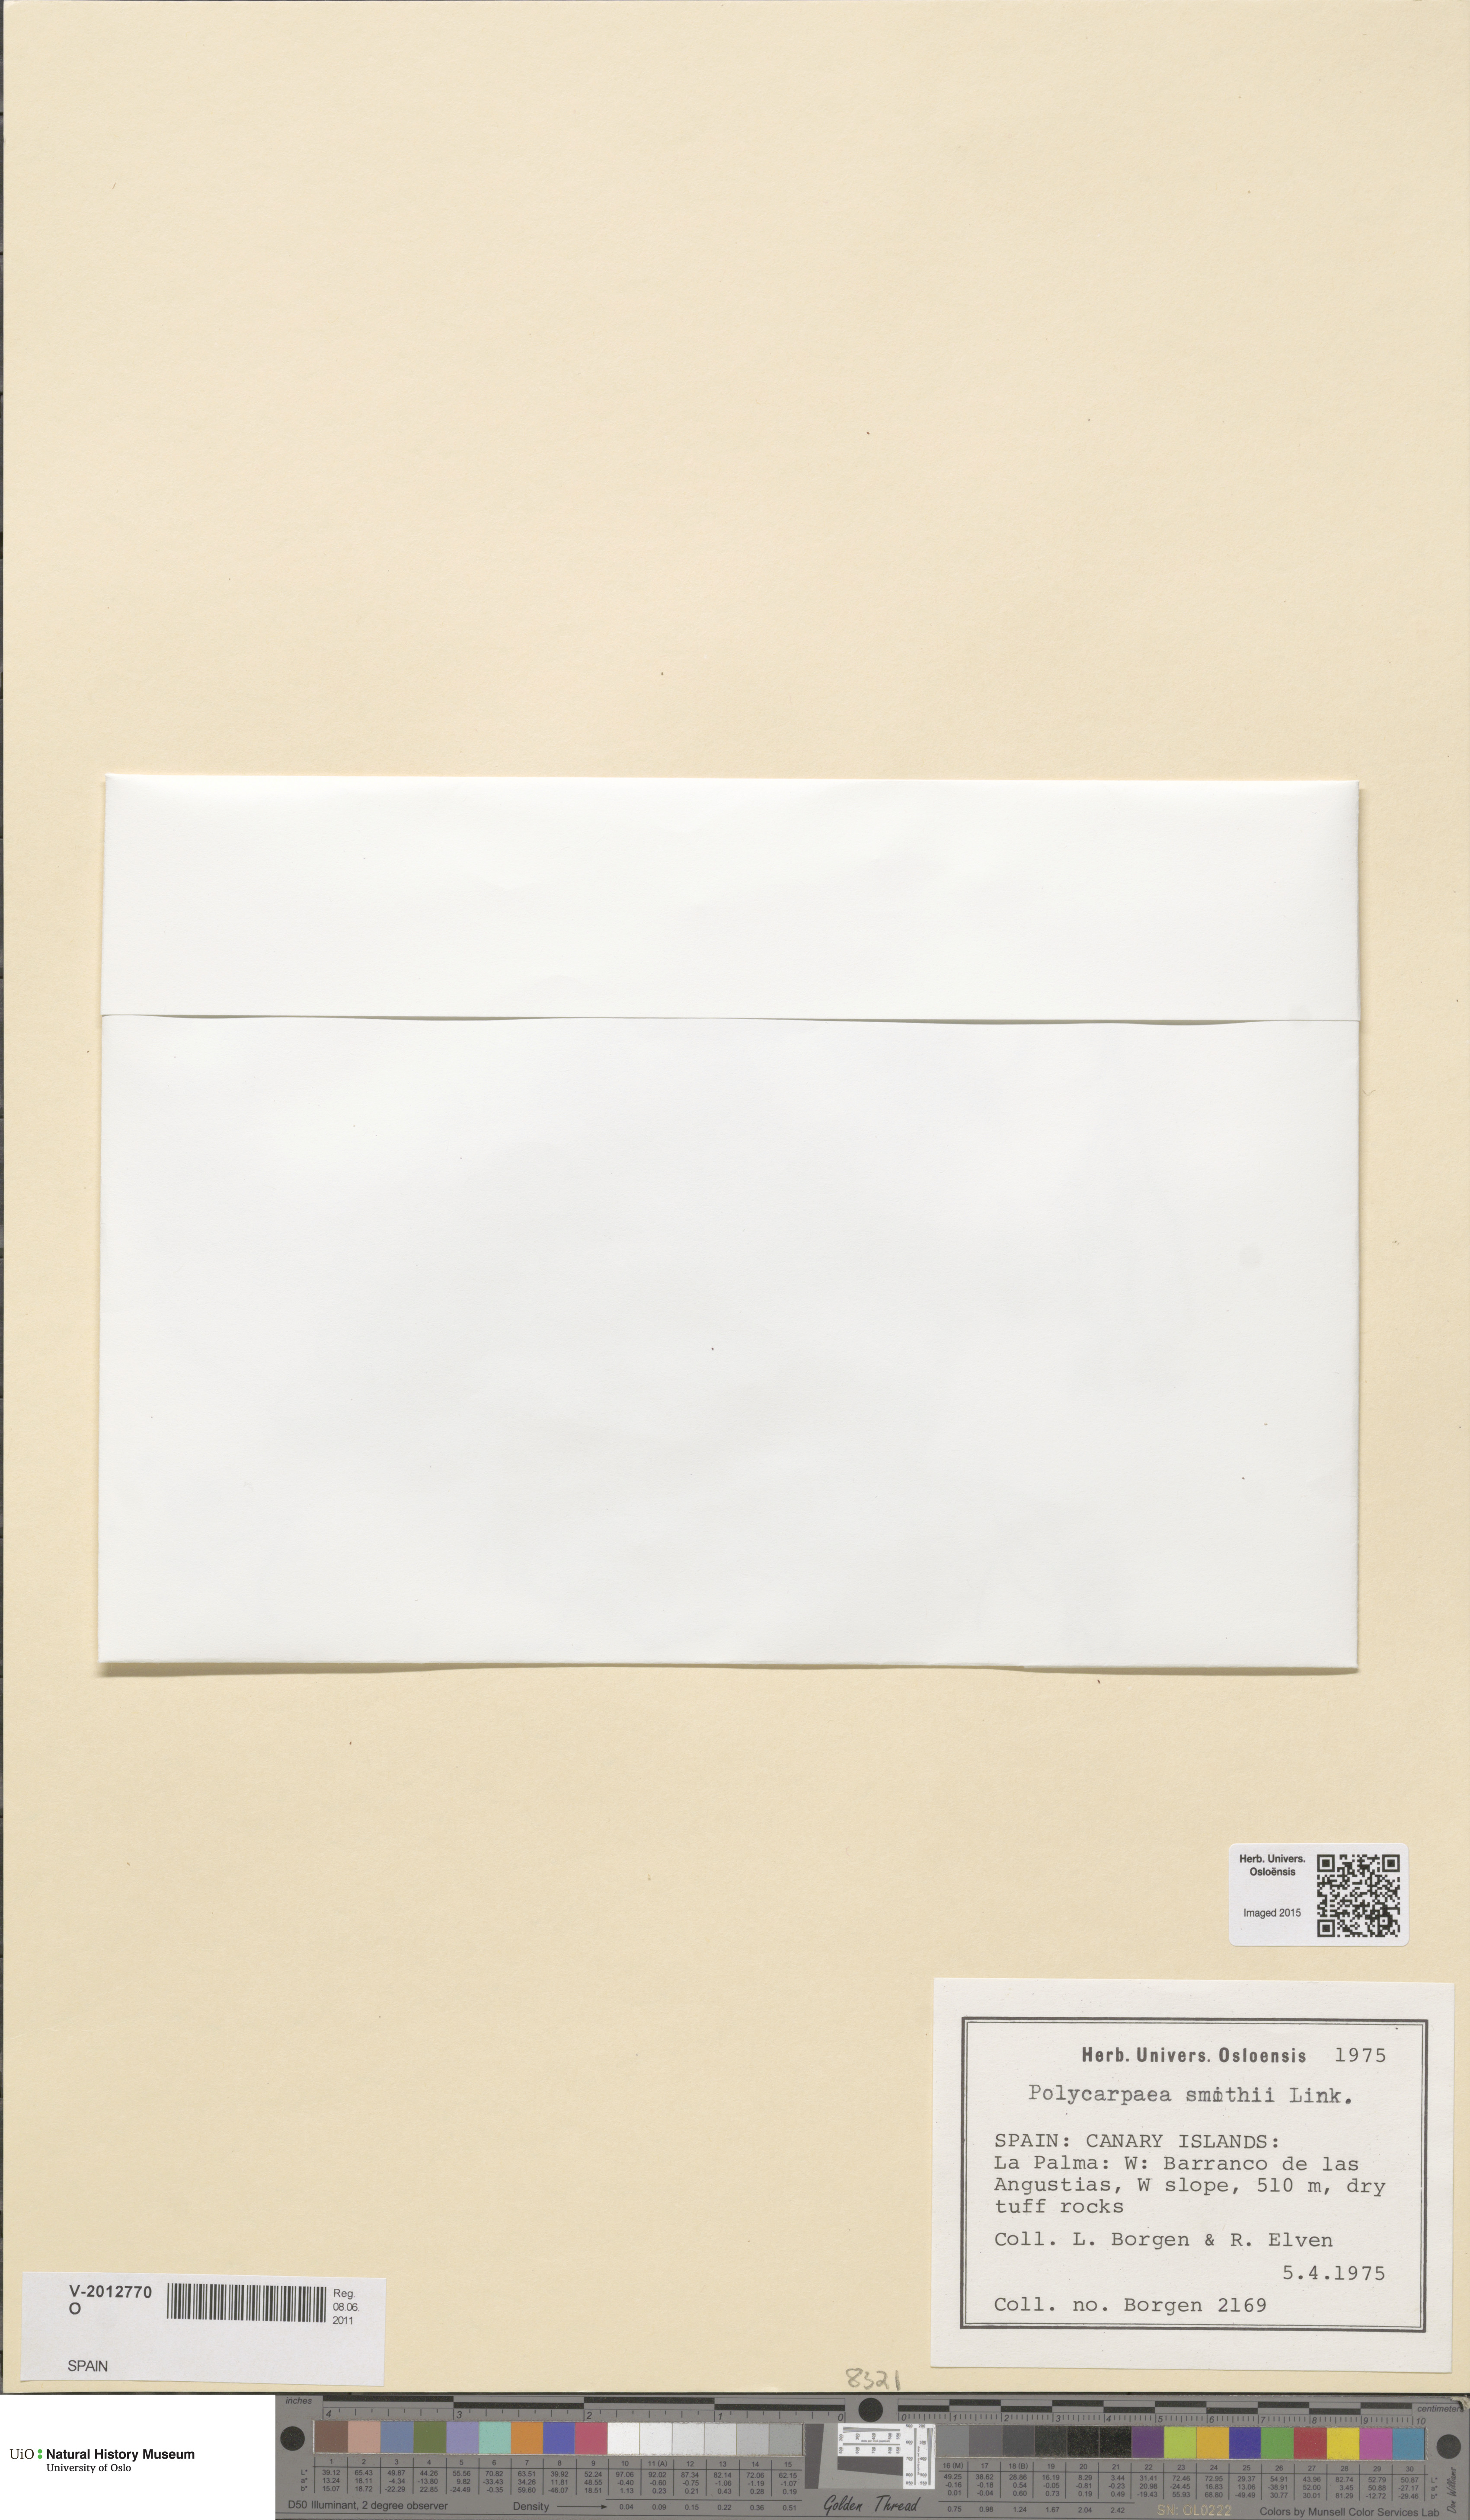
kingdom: Plantae
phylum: Tracheophyta
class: Magnoliopsida
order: Caryophyllales
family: Caryophyllaceae
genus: Polycarpaea
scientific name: Polycarpaea smithii
